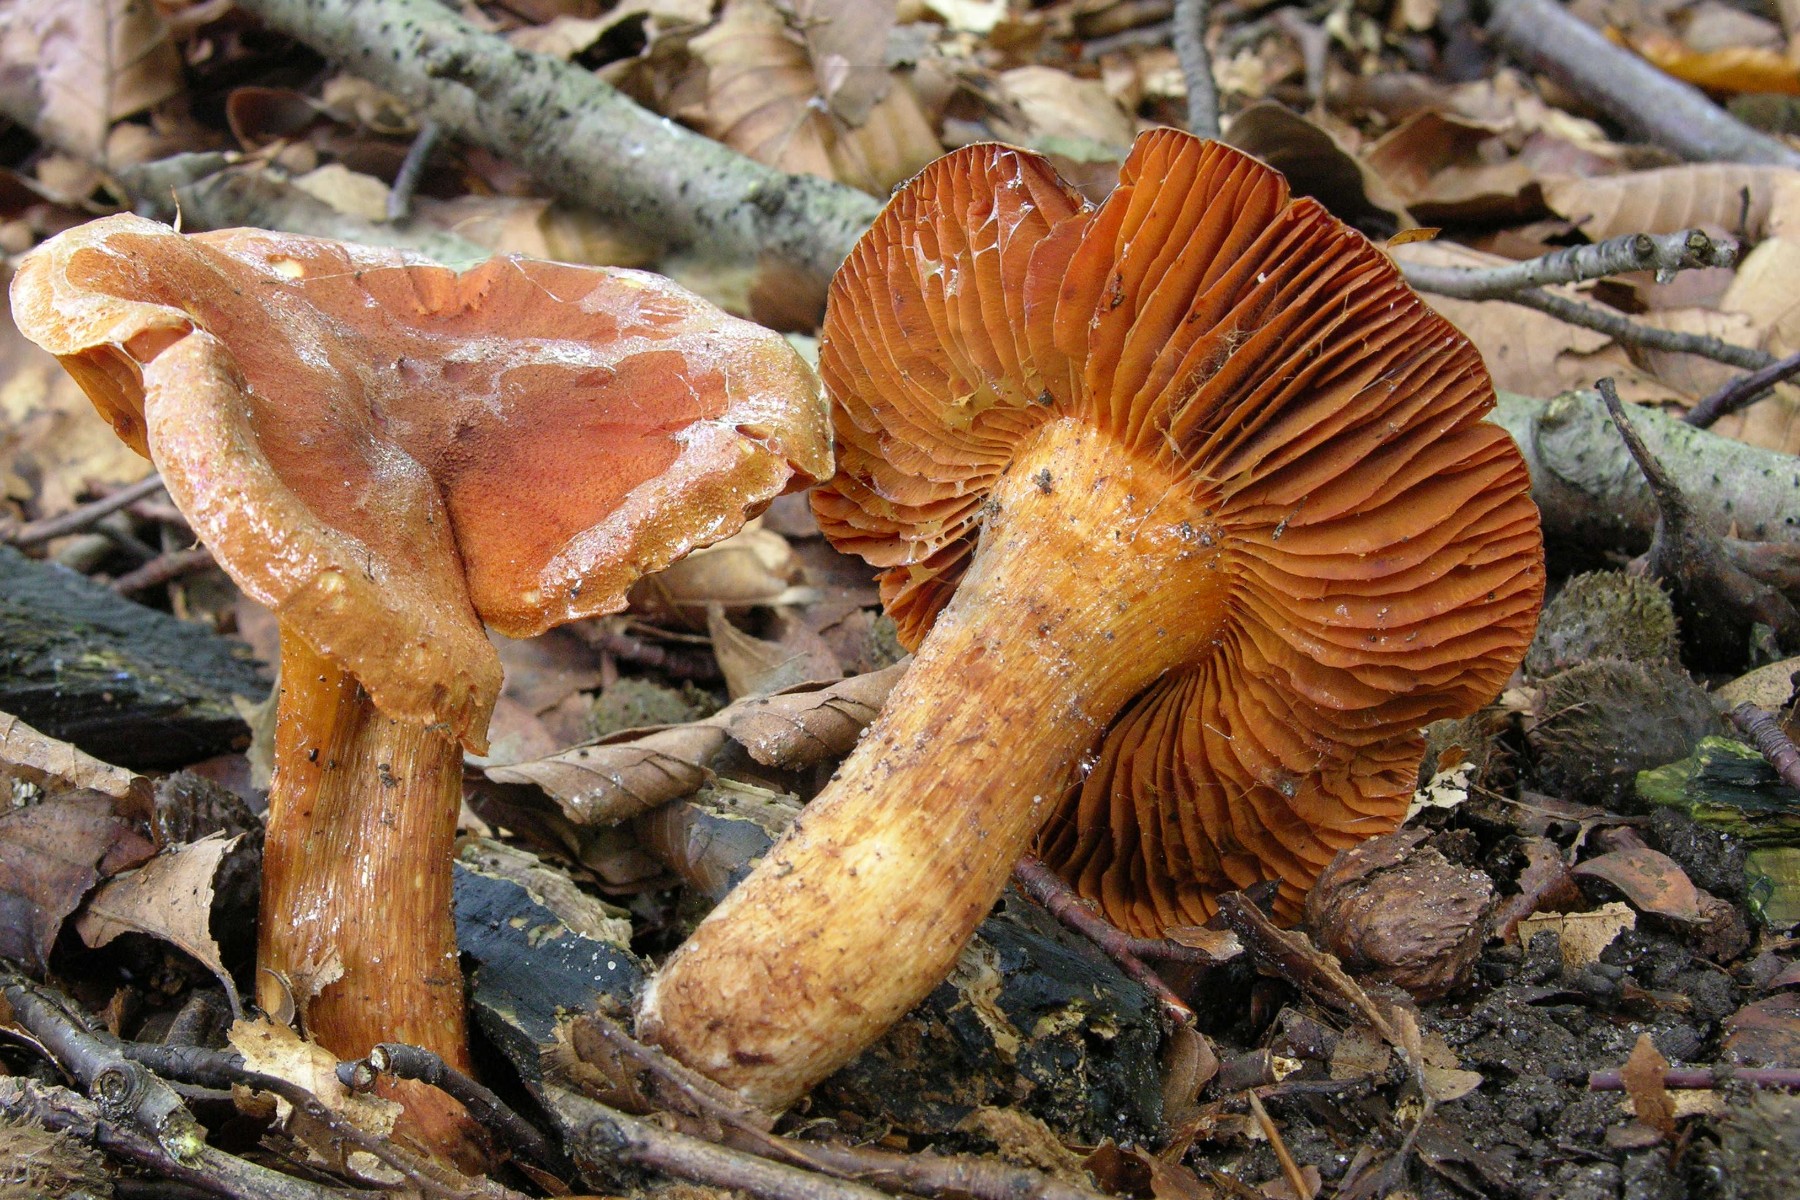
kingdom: Fungi
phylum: Basidiomycota
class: Agaricomycetes
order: Agaricales
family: Cortinariaceae
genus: Cortinarius
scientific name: Cortinarius orellanus
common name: hvælvet gift-slørhat
